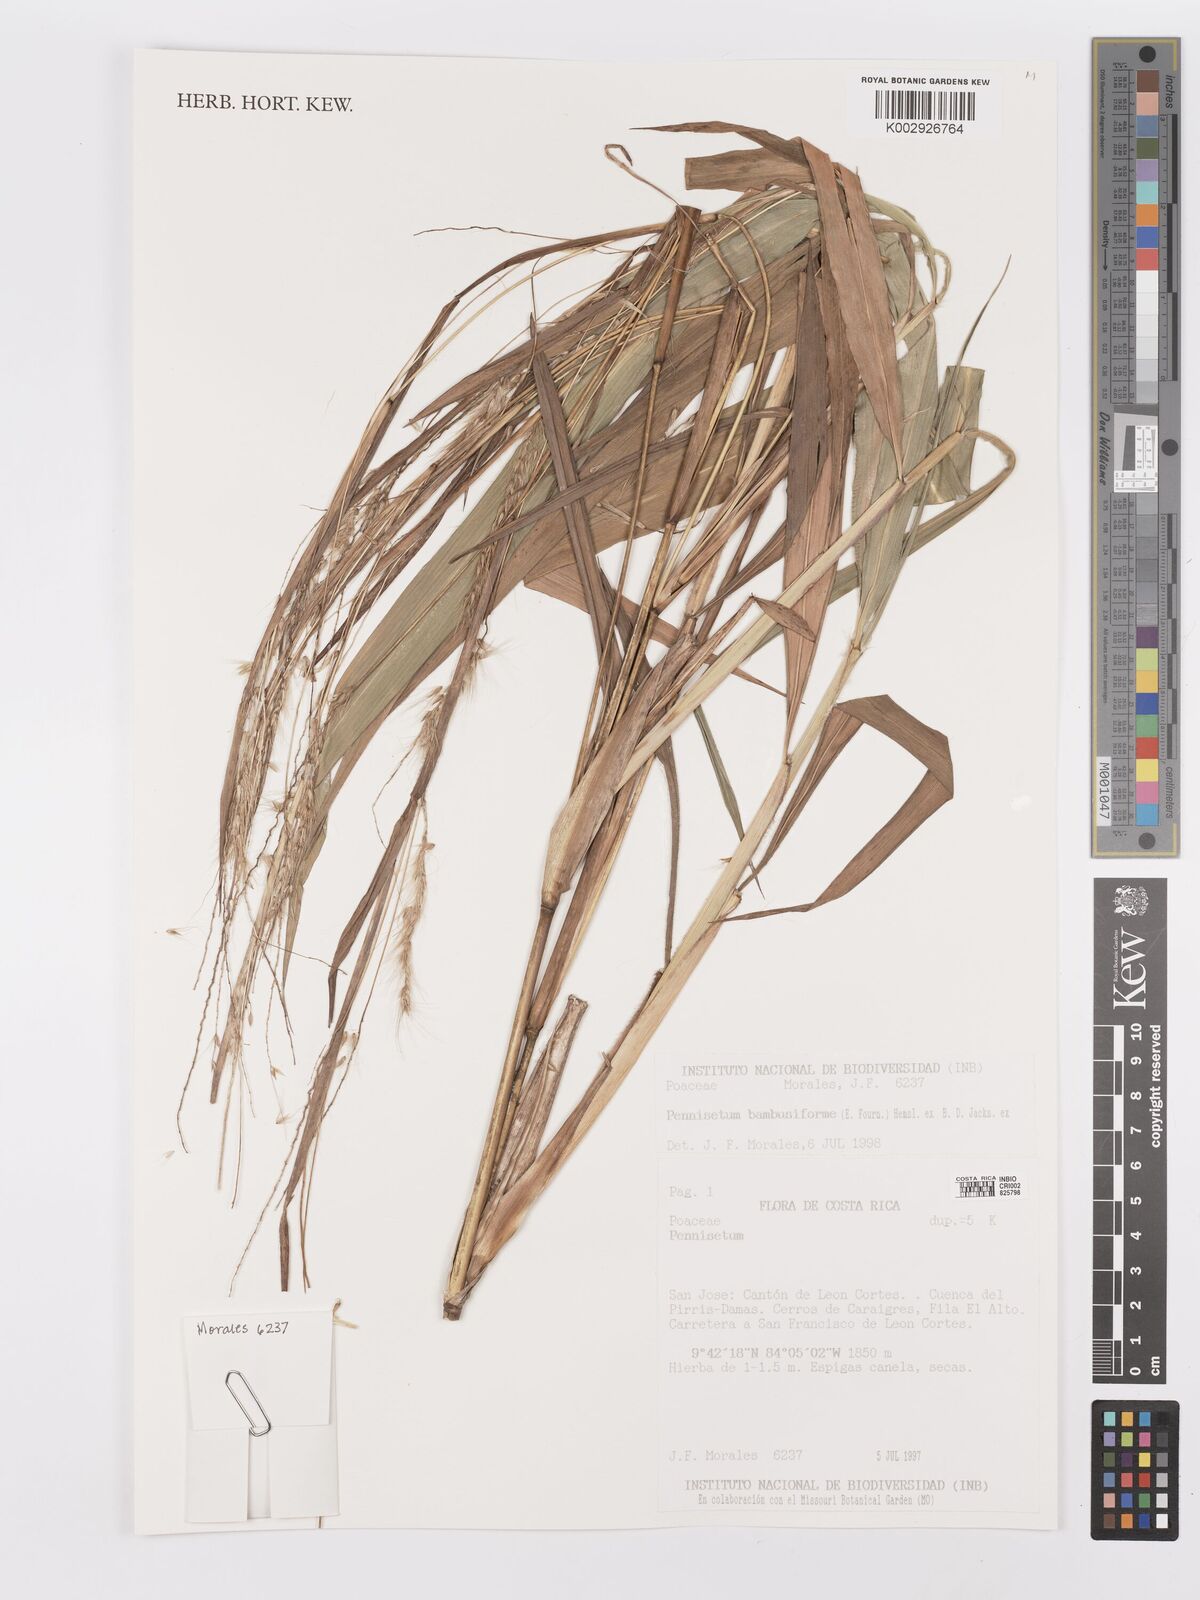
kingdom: Plantae
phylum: Tracheophyta
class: Liliopsida
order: Poales
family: Poaceae
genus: Cenchrus
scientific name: Cenchrus preslii
